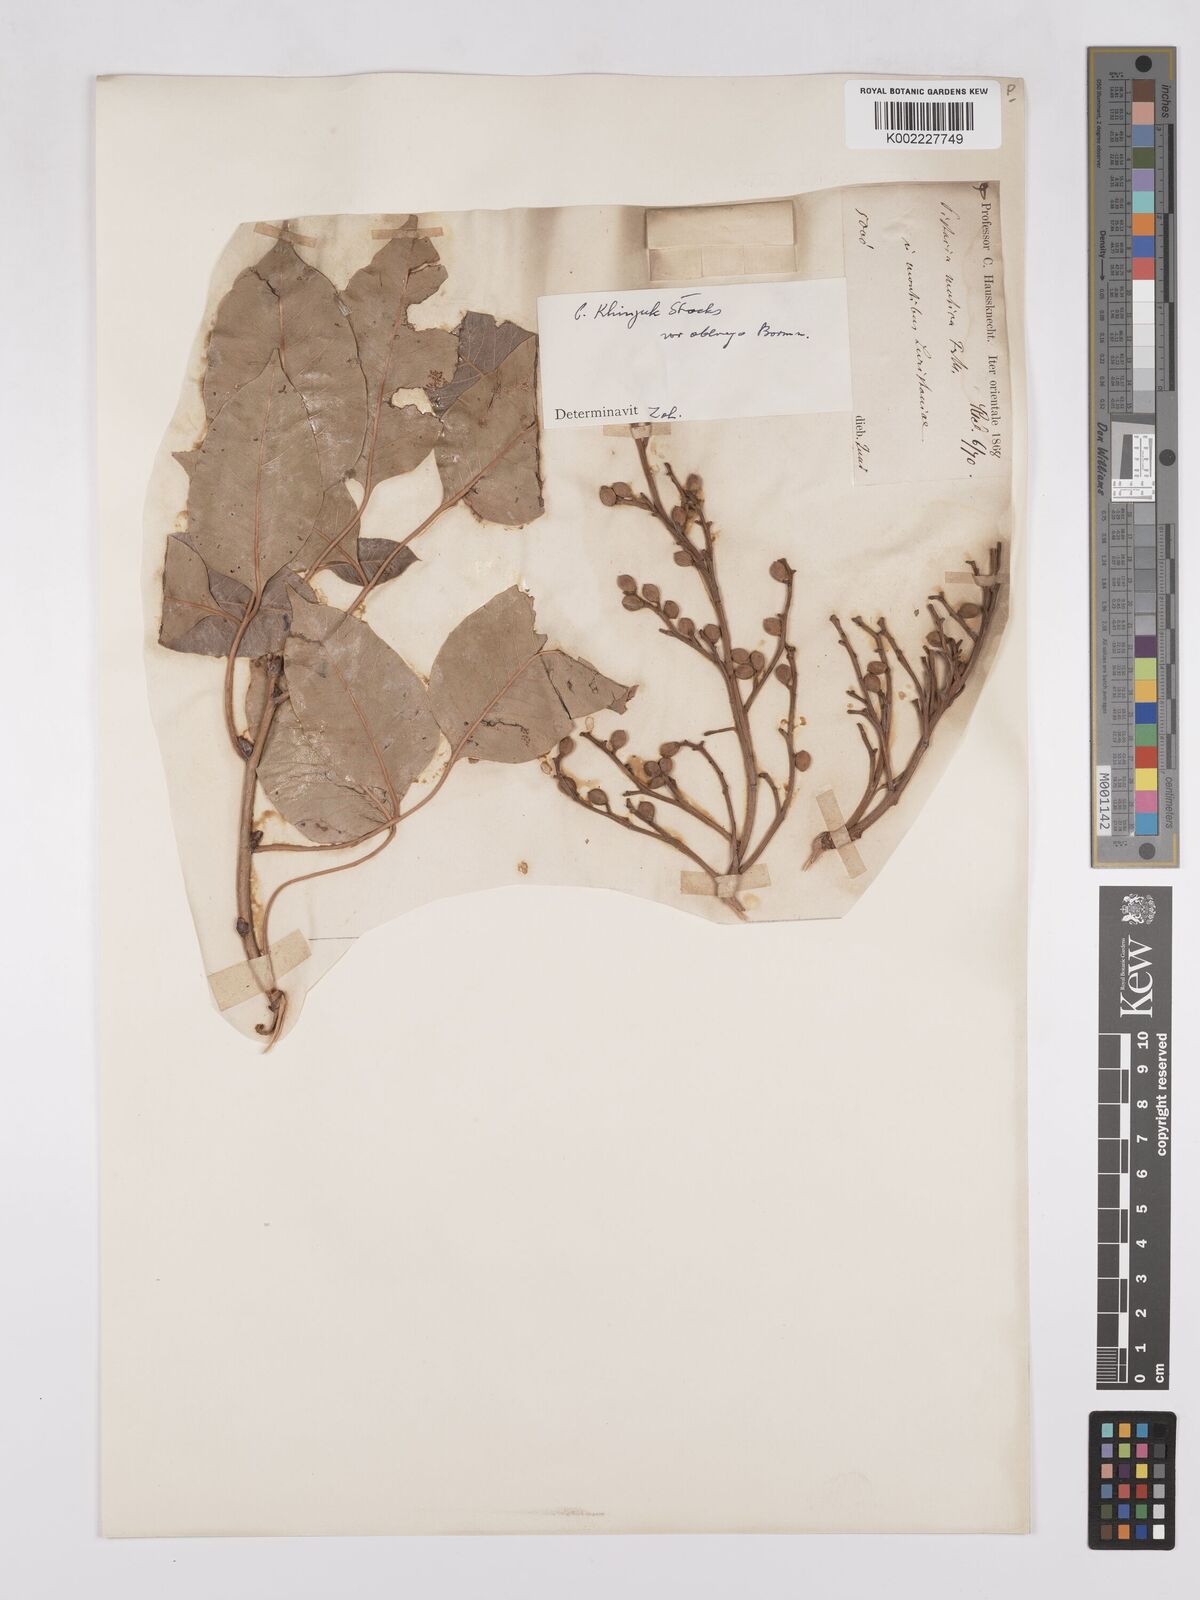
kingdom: Plantae
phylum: Tracheophyta
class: Magnoliopsida
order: Sapindales
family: Anacardiaceae
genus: Pistacia
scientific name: Pistacia khinjuk
